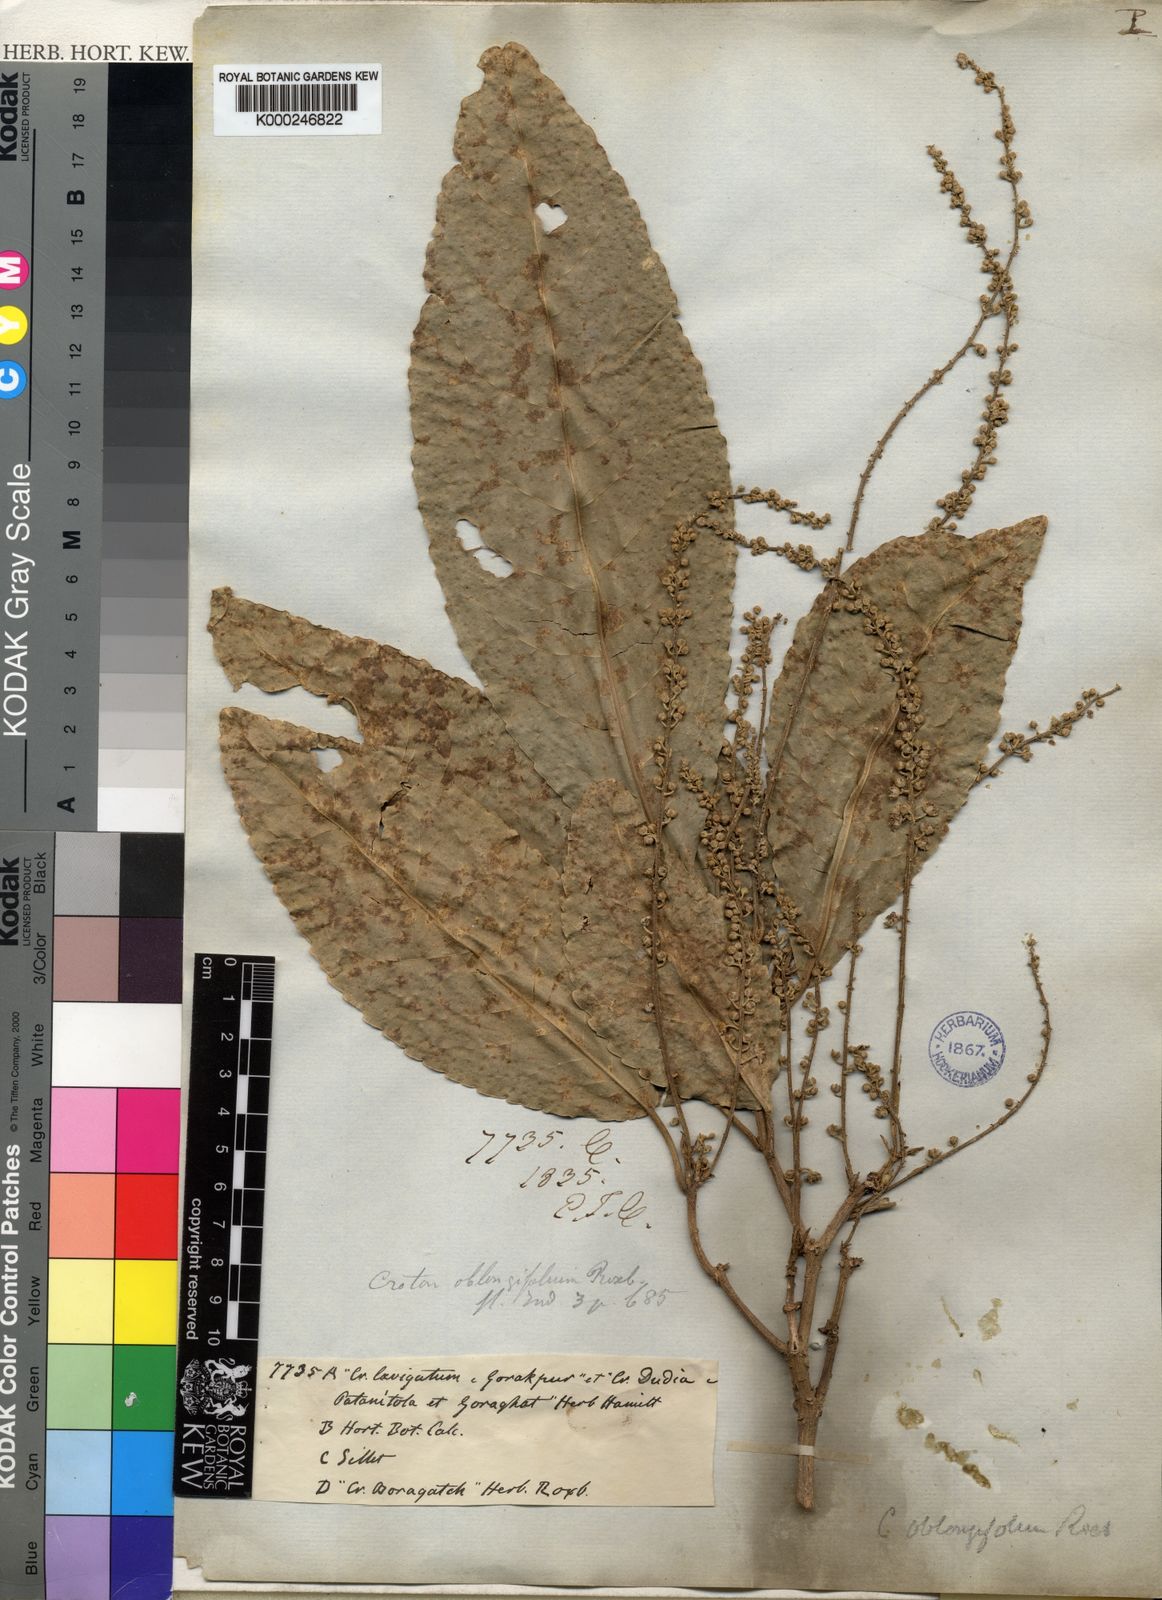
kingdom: Plantae
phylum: Tracheophyta
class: Magnoliopsida
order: Malpighiales
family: Euphorbiaceae
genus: Croton
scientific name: Croton persimilis
